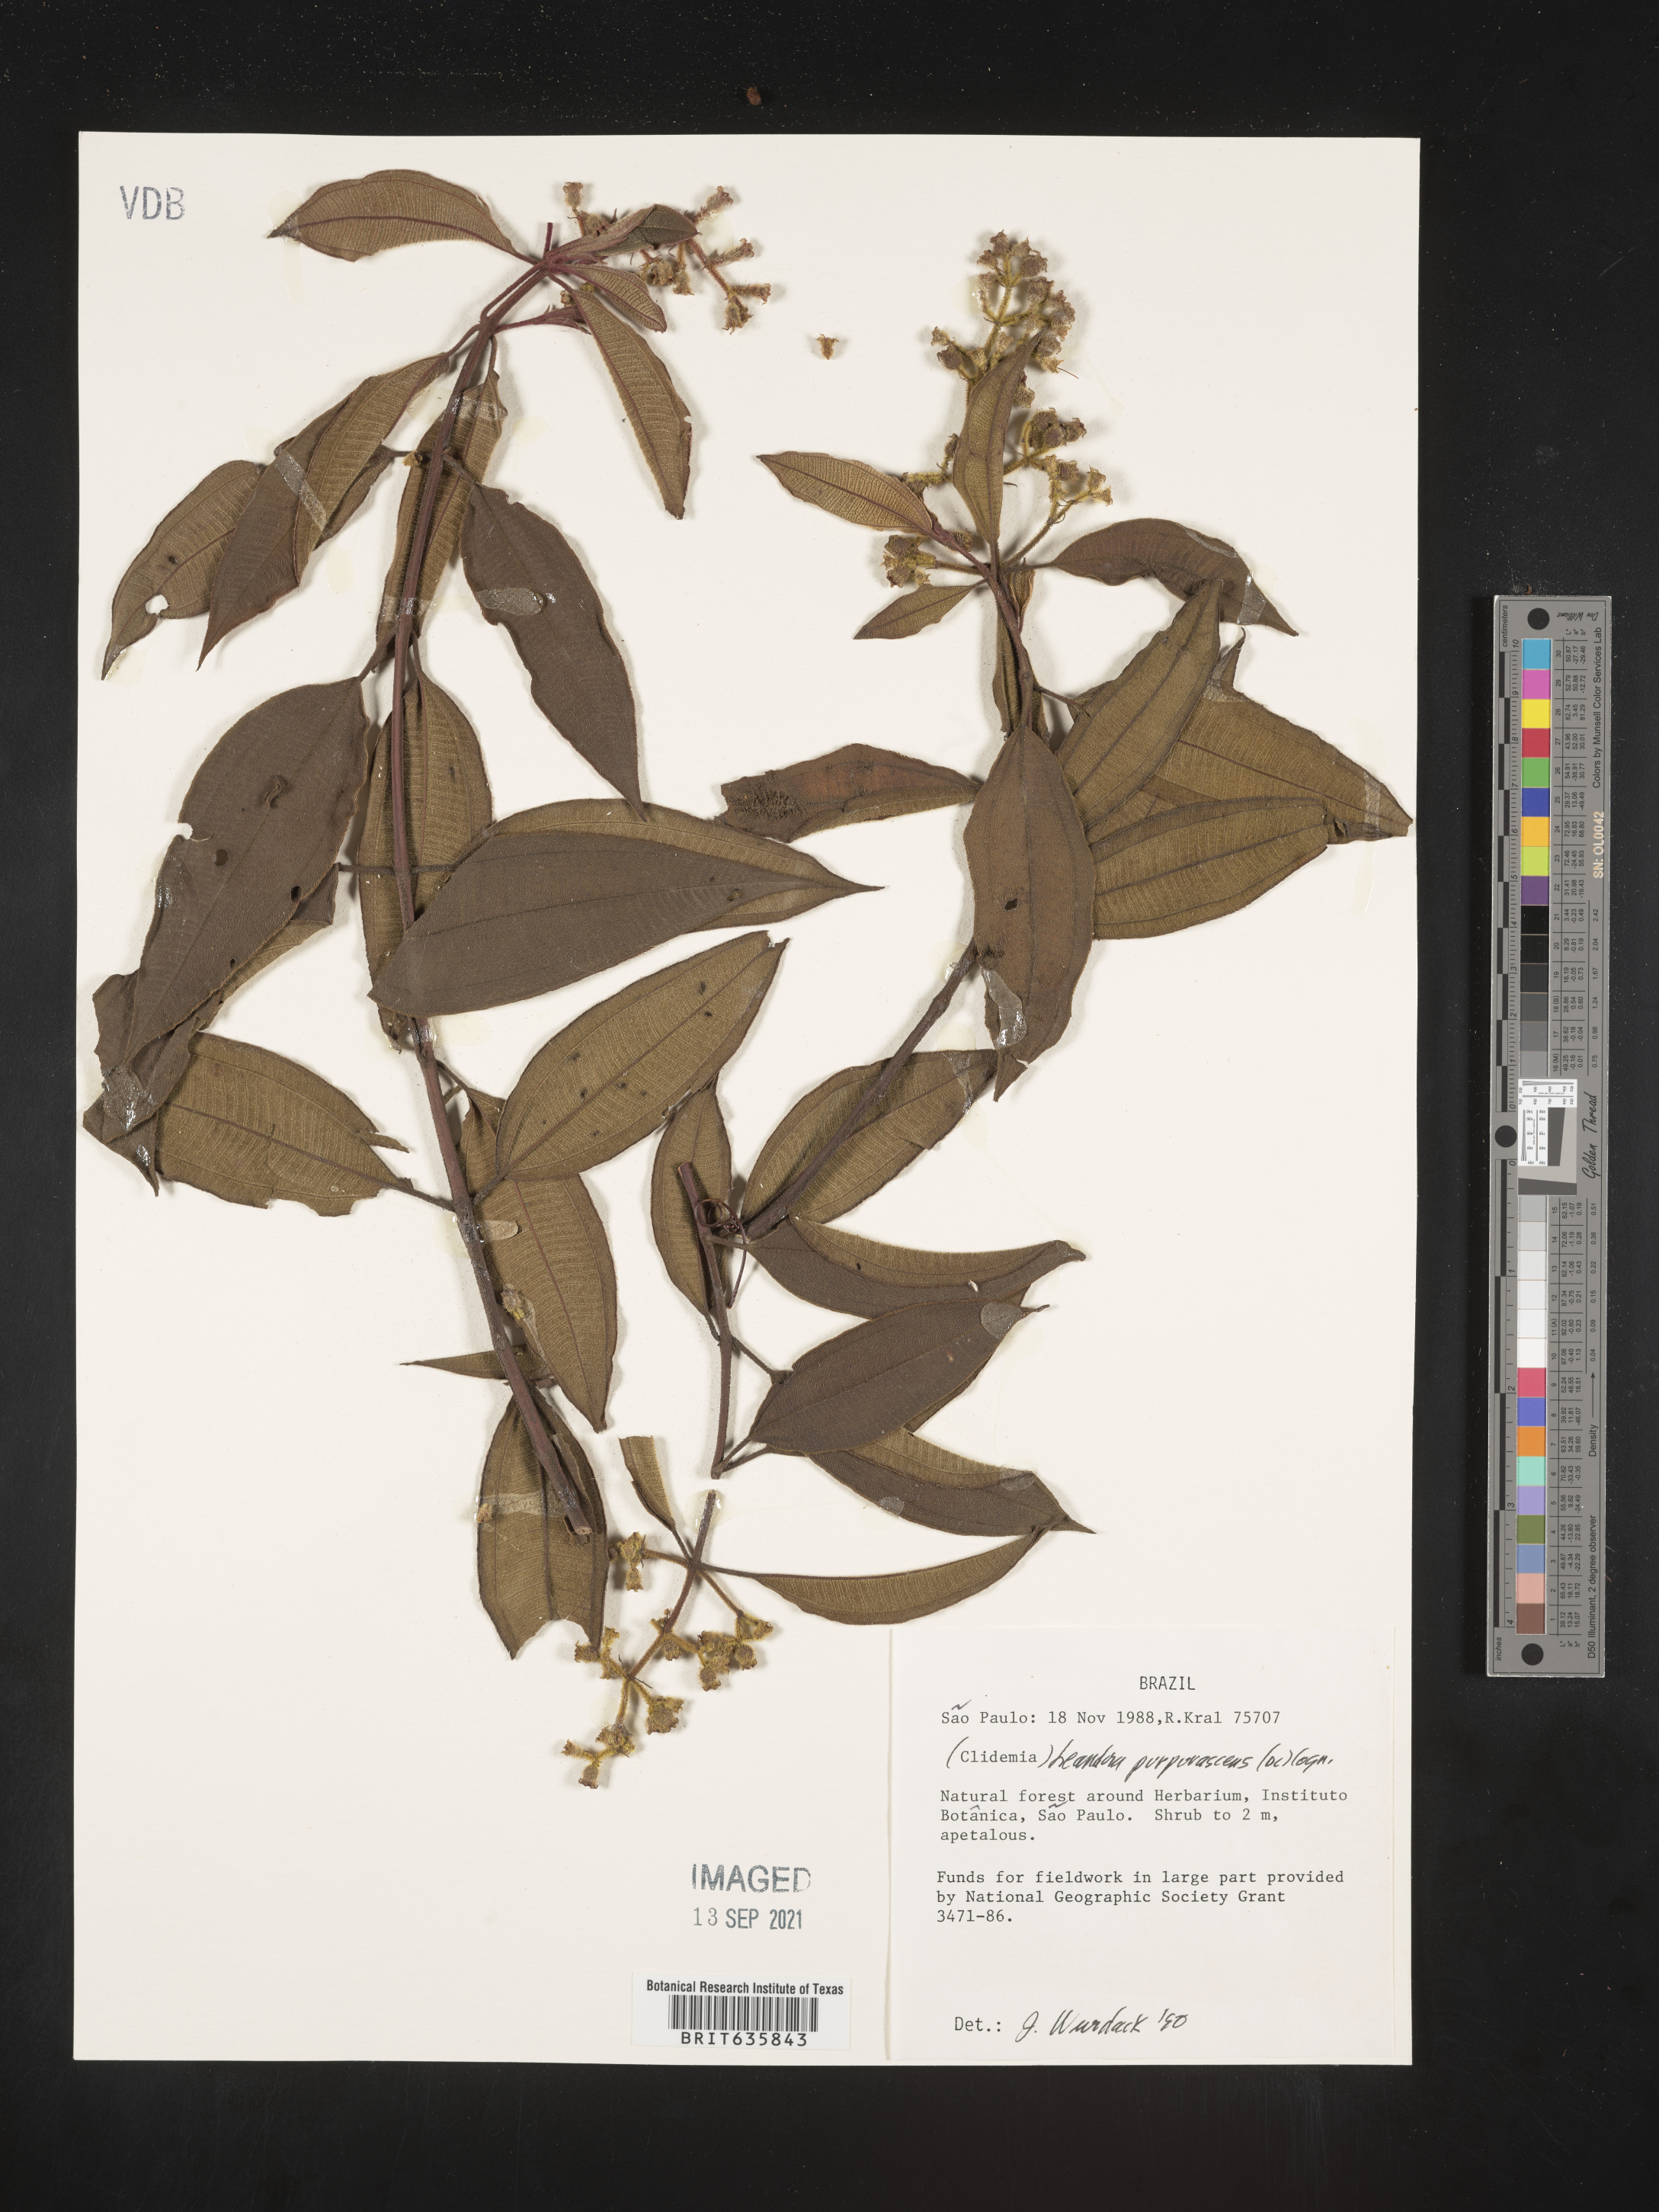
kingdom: Plantae
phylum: Tracheophyta
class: Magnoliopsida
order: Myrtales
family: Melastomataceae
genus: Miconia
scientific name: Miconia
